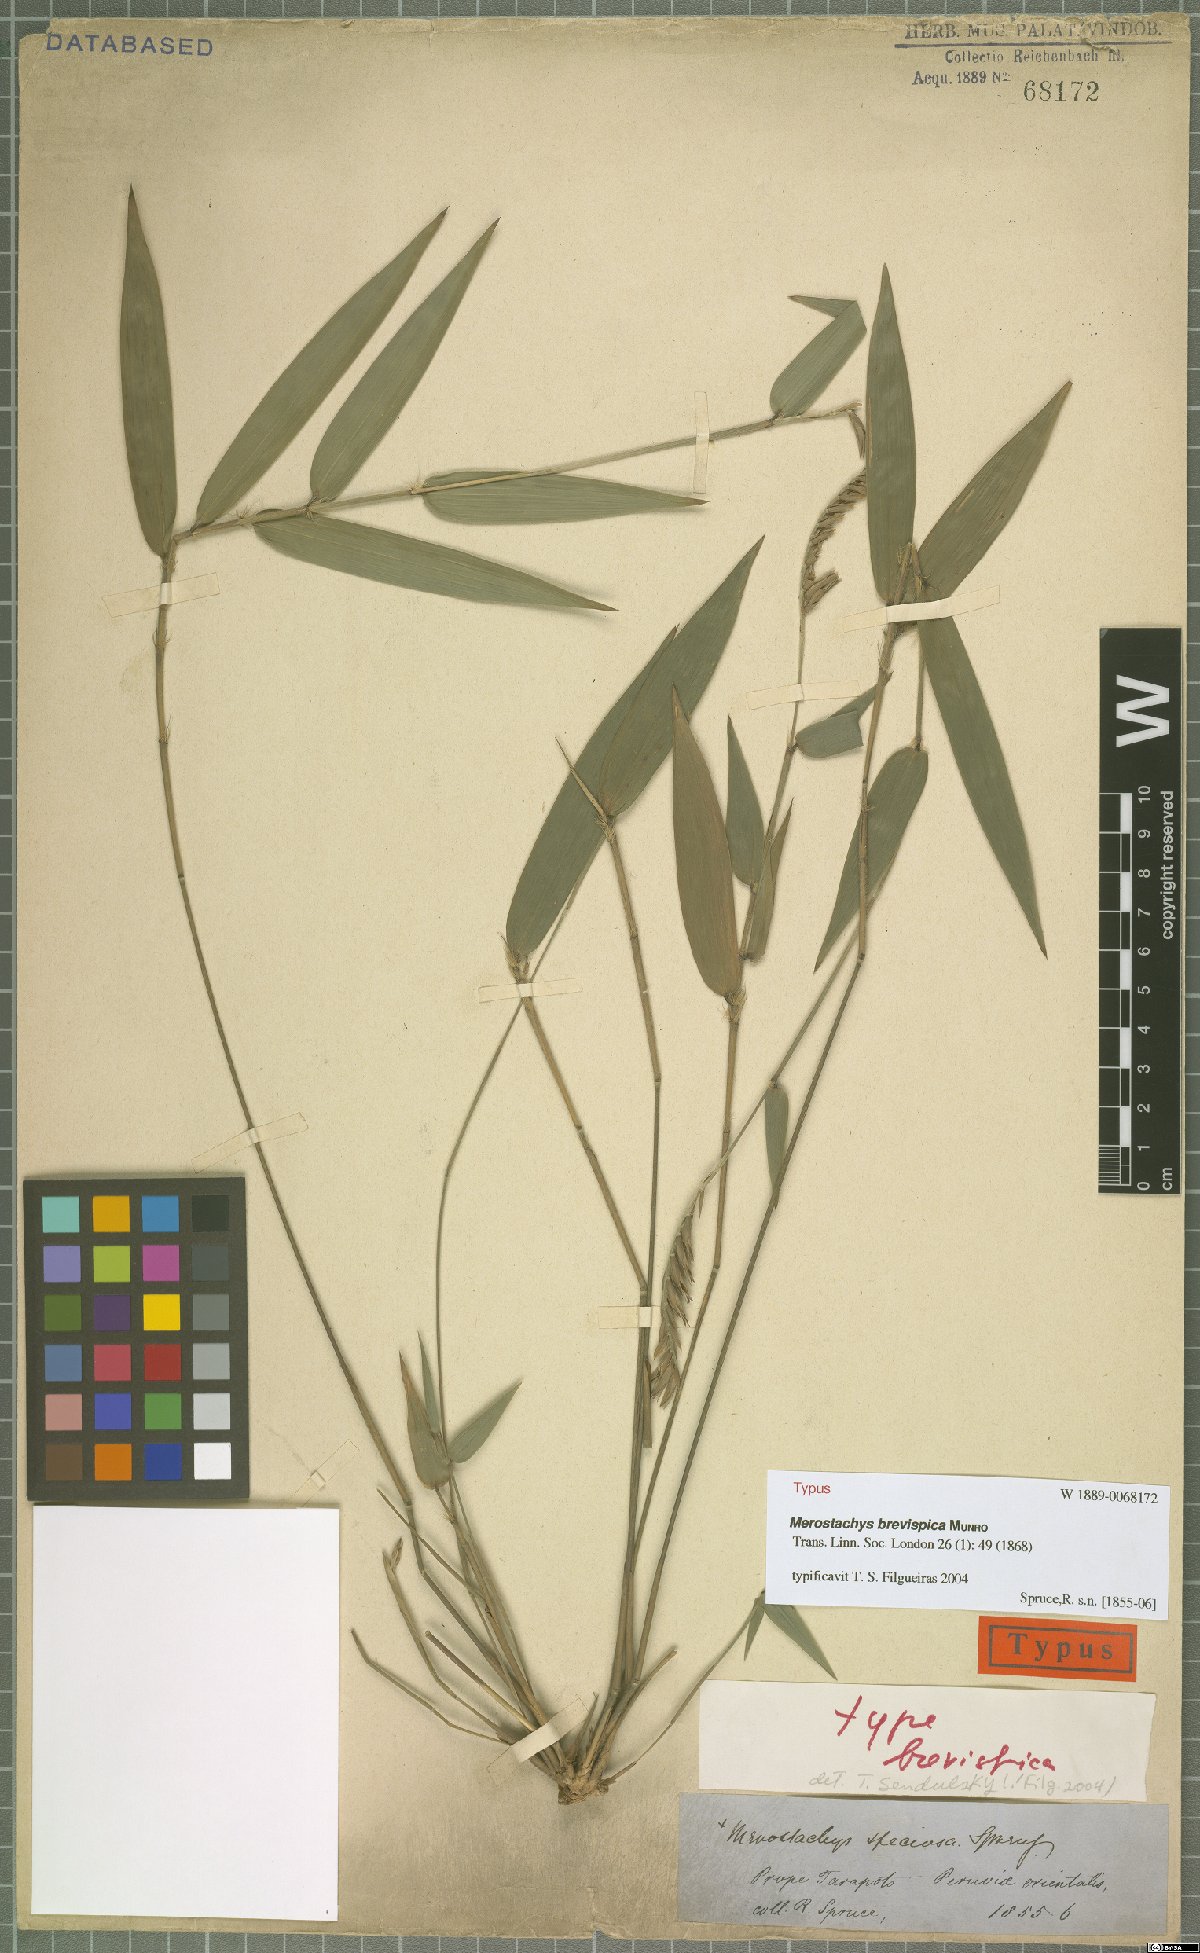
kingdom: Plantae
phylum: Tracheophyta
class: Liliopsida
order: Poales
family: Poaceae
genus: Merostachys
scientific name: Merostachys brevispica
